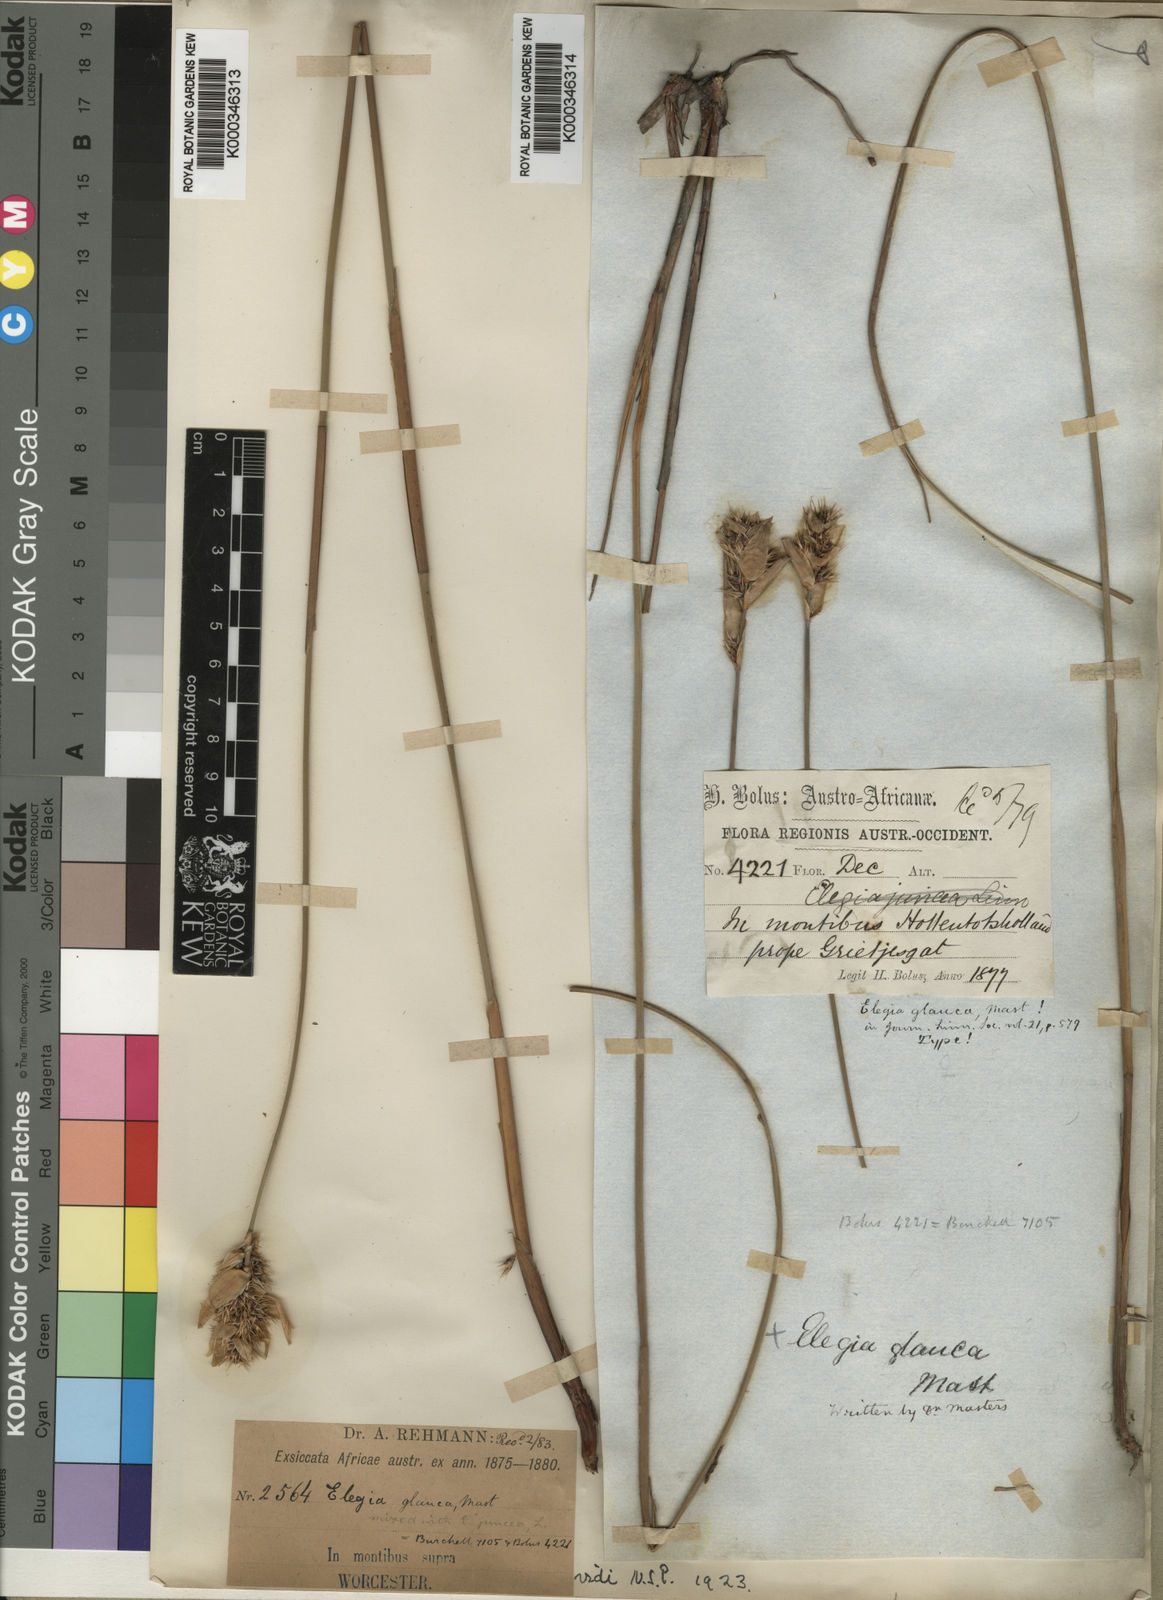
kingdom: Plantae
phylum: Tracheophyta
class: Liliopsida
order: Poales
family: Restionaceae
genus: Elegia
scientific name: Elegia asperiflora
